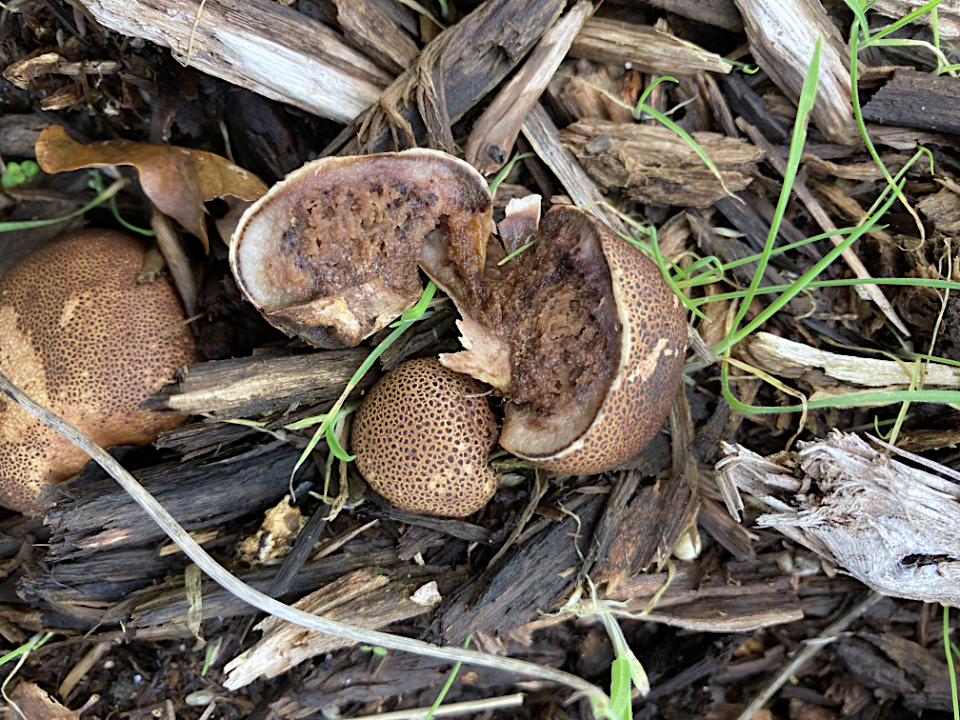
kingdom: Fungi
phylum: Basidiomycota
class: Agaricomycetes
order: Boletales
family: Sclerodermataceae
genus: Scleroderma
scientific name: Scleroderma
